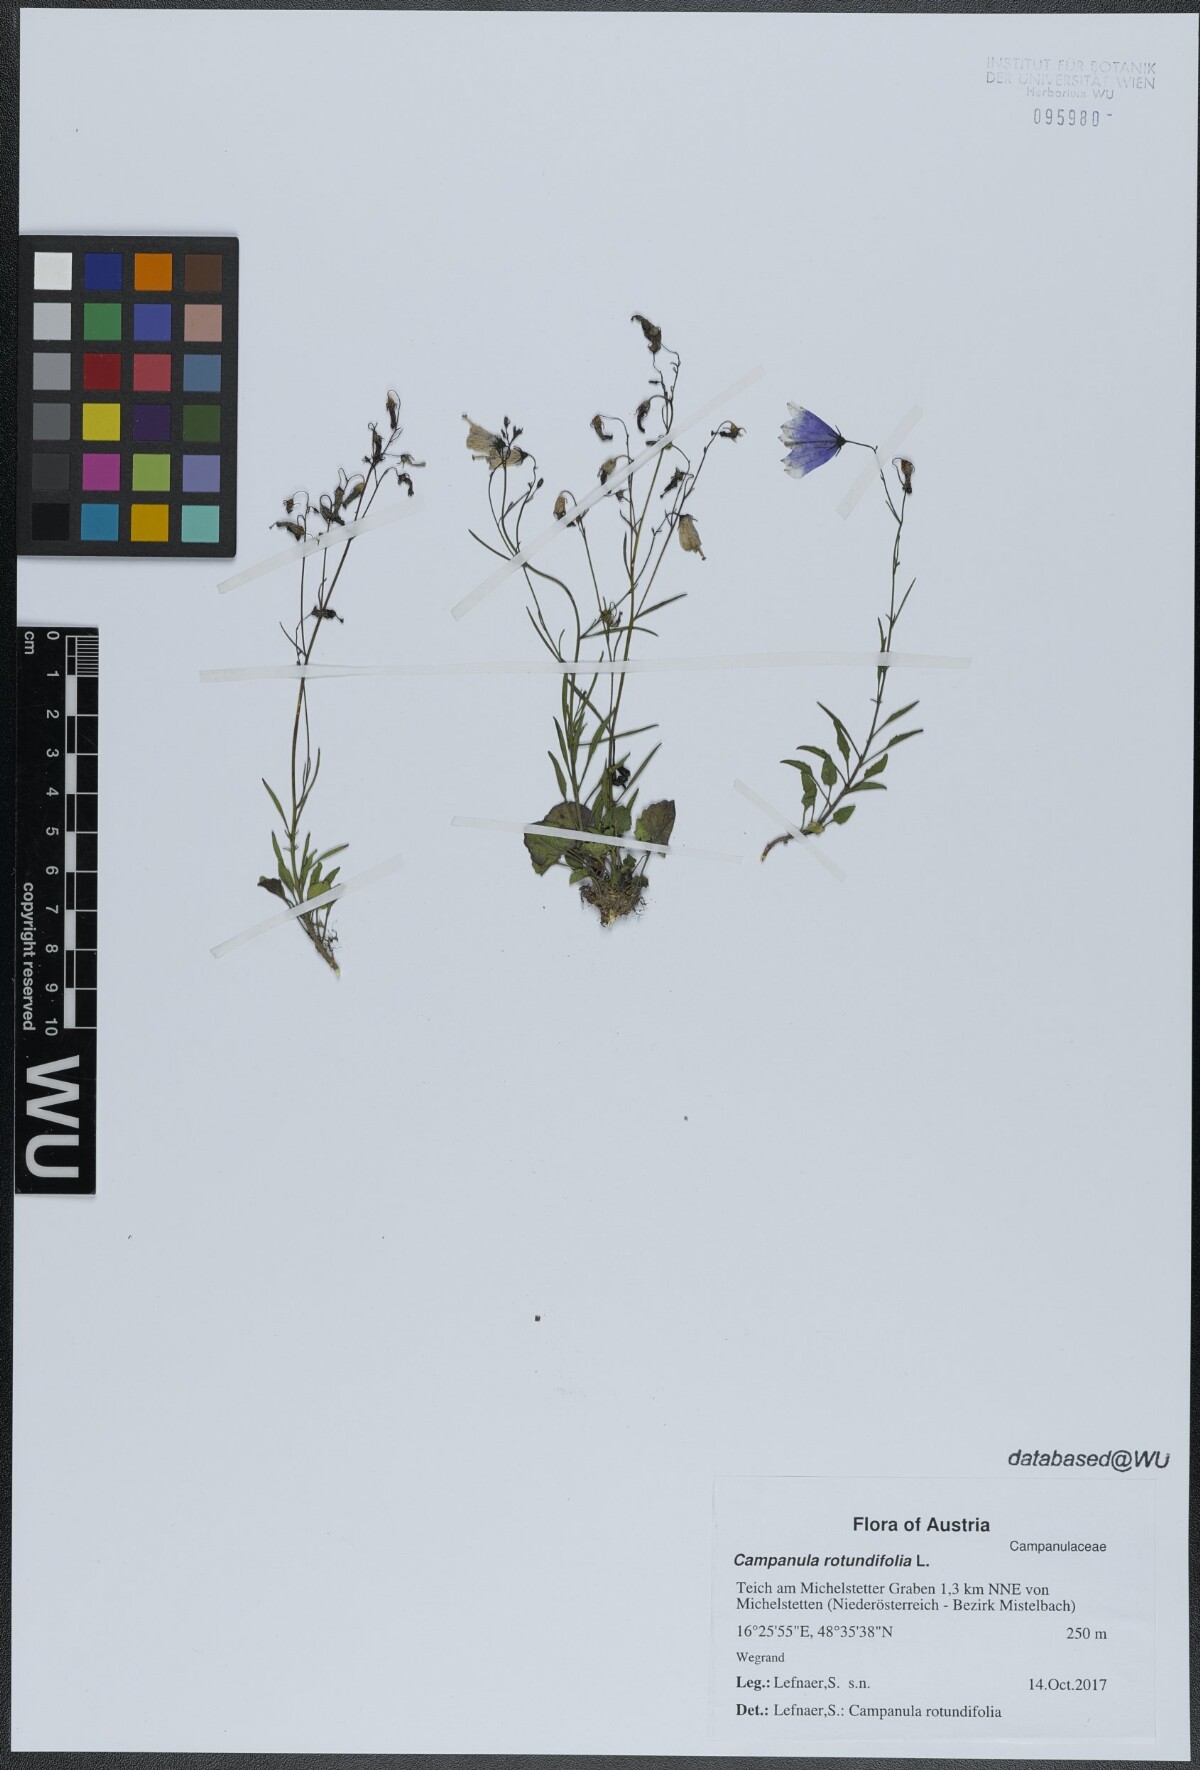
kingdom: Plantae
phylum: Tracheophyta
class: Magnoliopsida
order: Asterales
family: Campanulaceae
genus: Campanula
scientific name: Campanula rotundifolia
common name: Harebell
